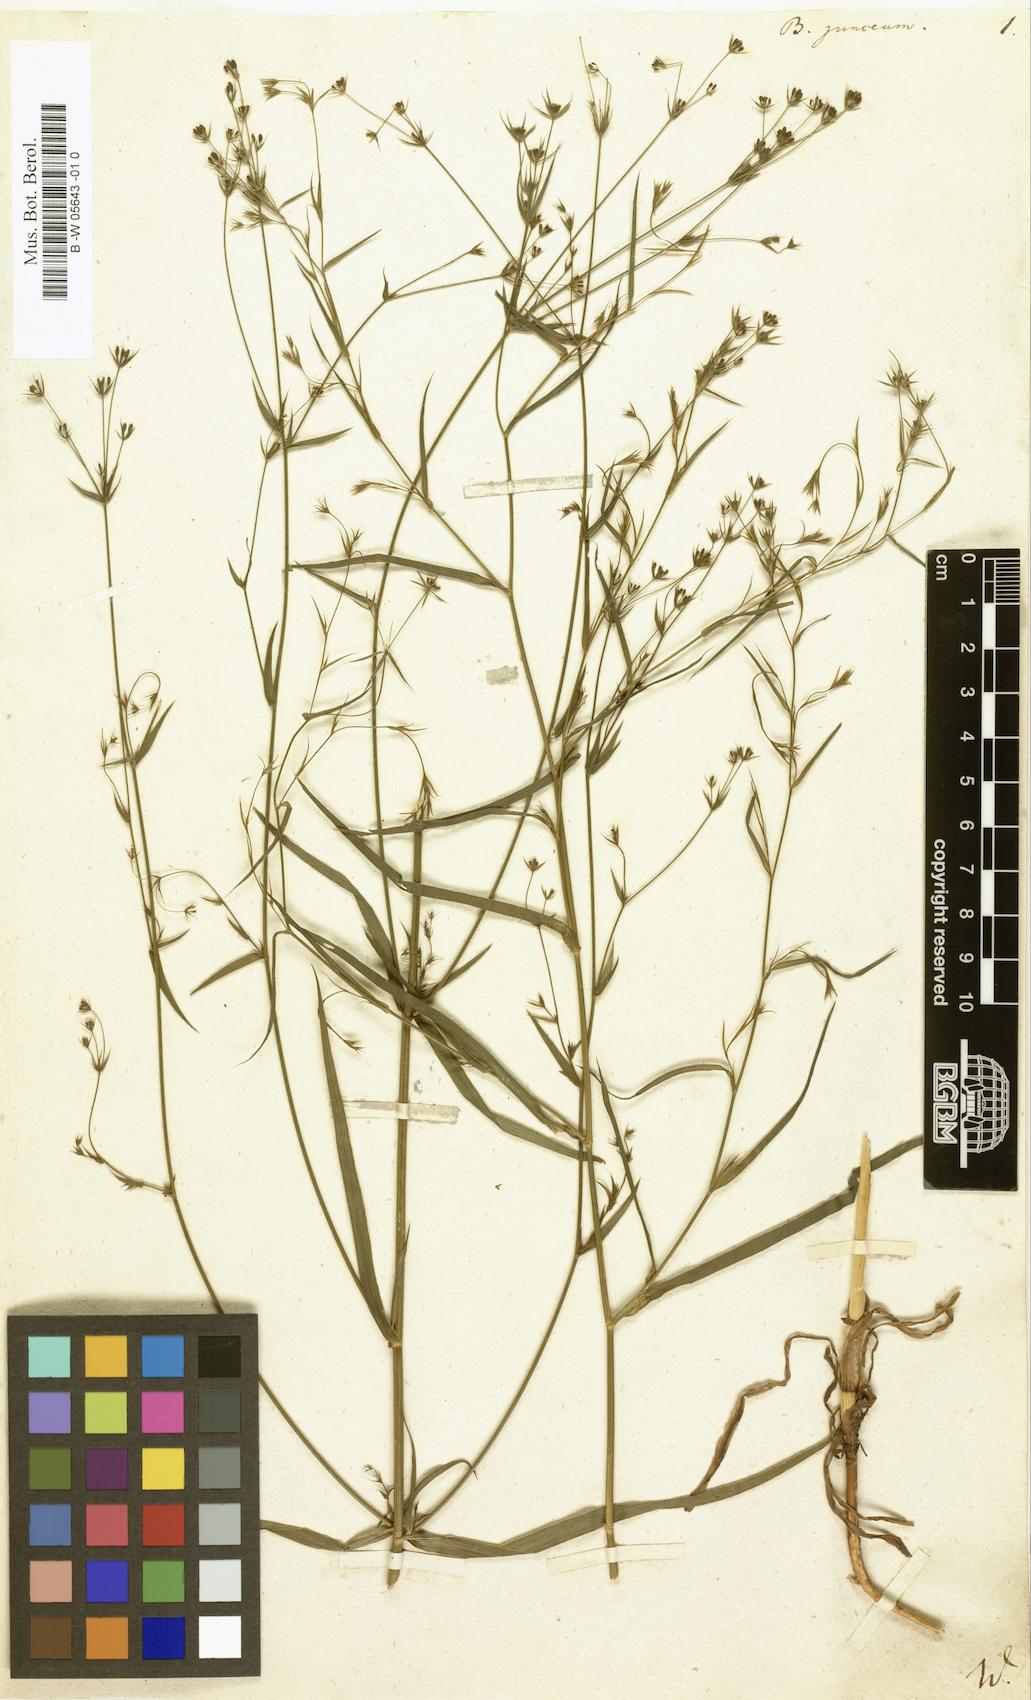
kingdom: Plantae
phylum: Tracheophyta
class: Magnoliopsida
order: Apiales
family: Apiaceae
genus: Bupleurum
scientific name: Bupleurum praealtum
